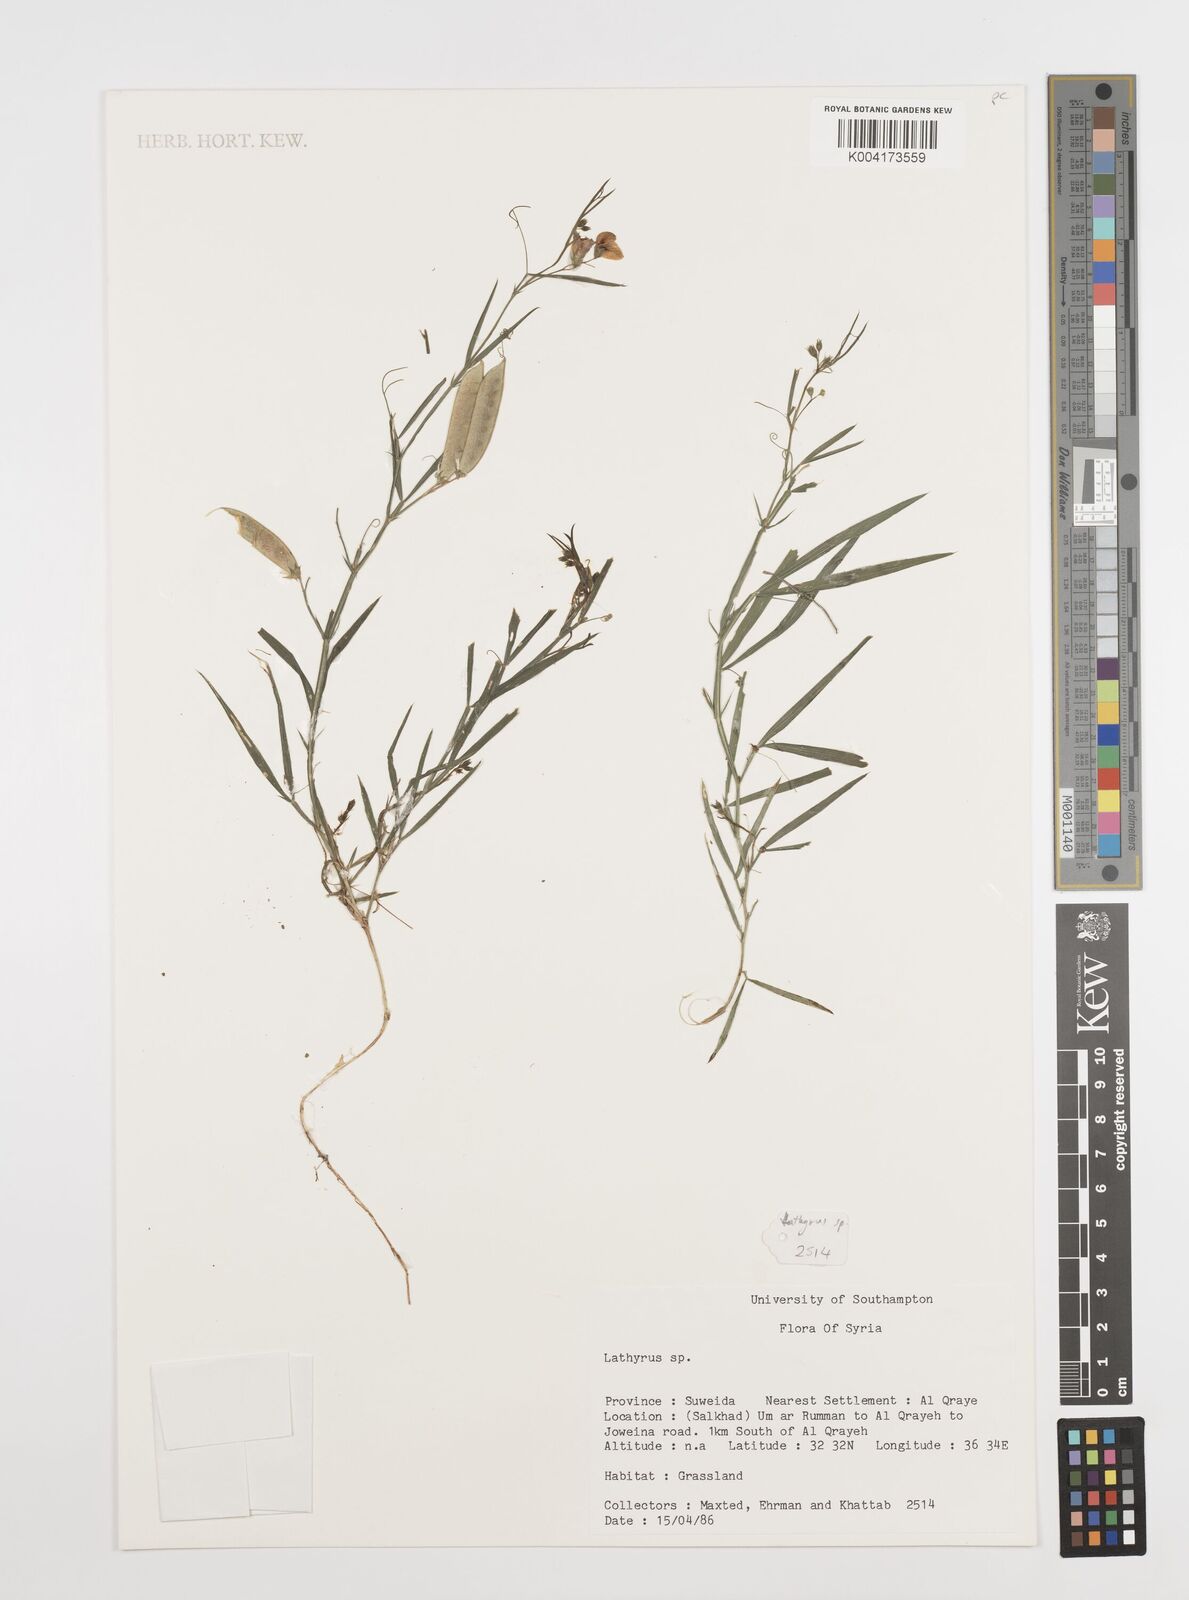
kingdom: Plantae
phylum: Tracheophyta
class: Magnoliopsida
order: Fabales
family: Fabaceae
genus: Lathyrus
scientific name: Lathyrus
